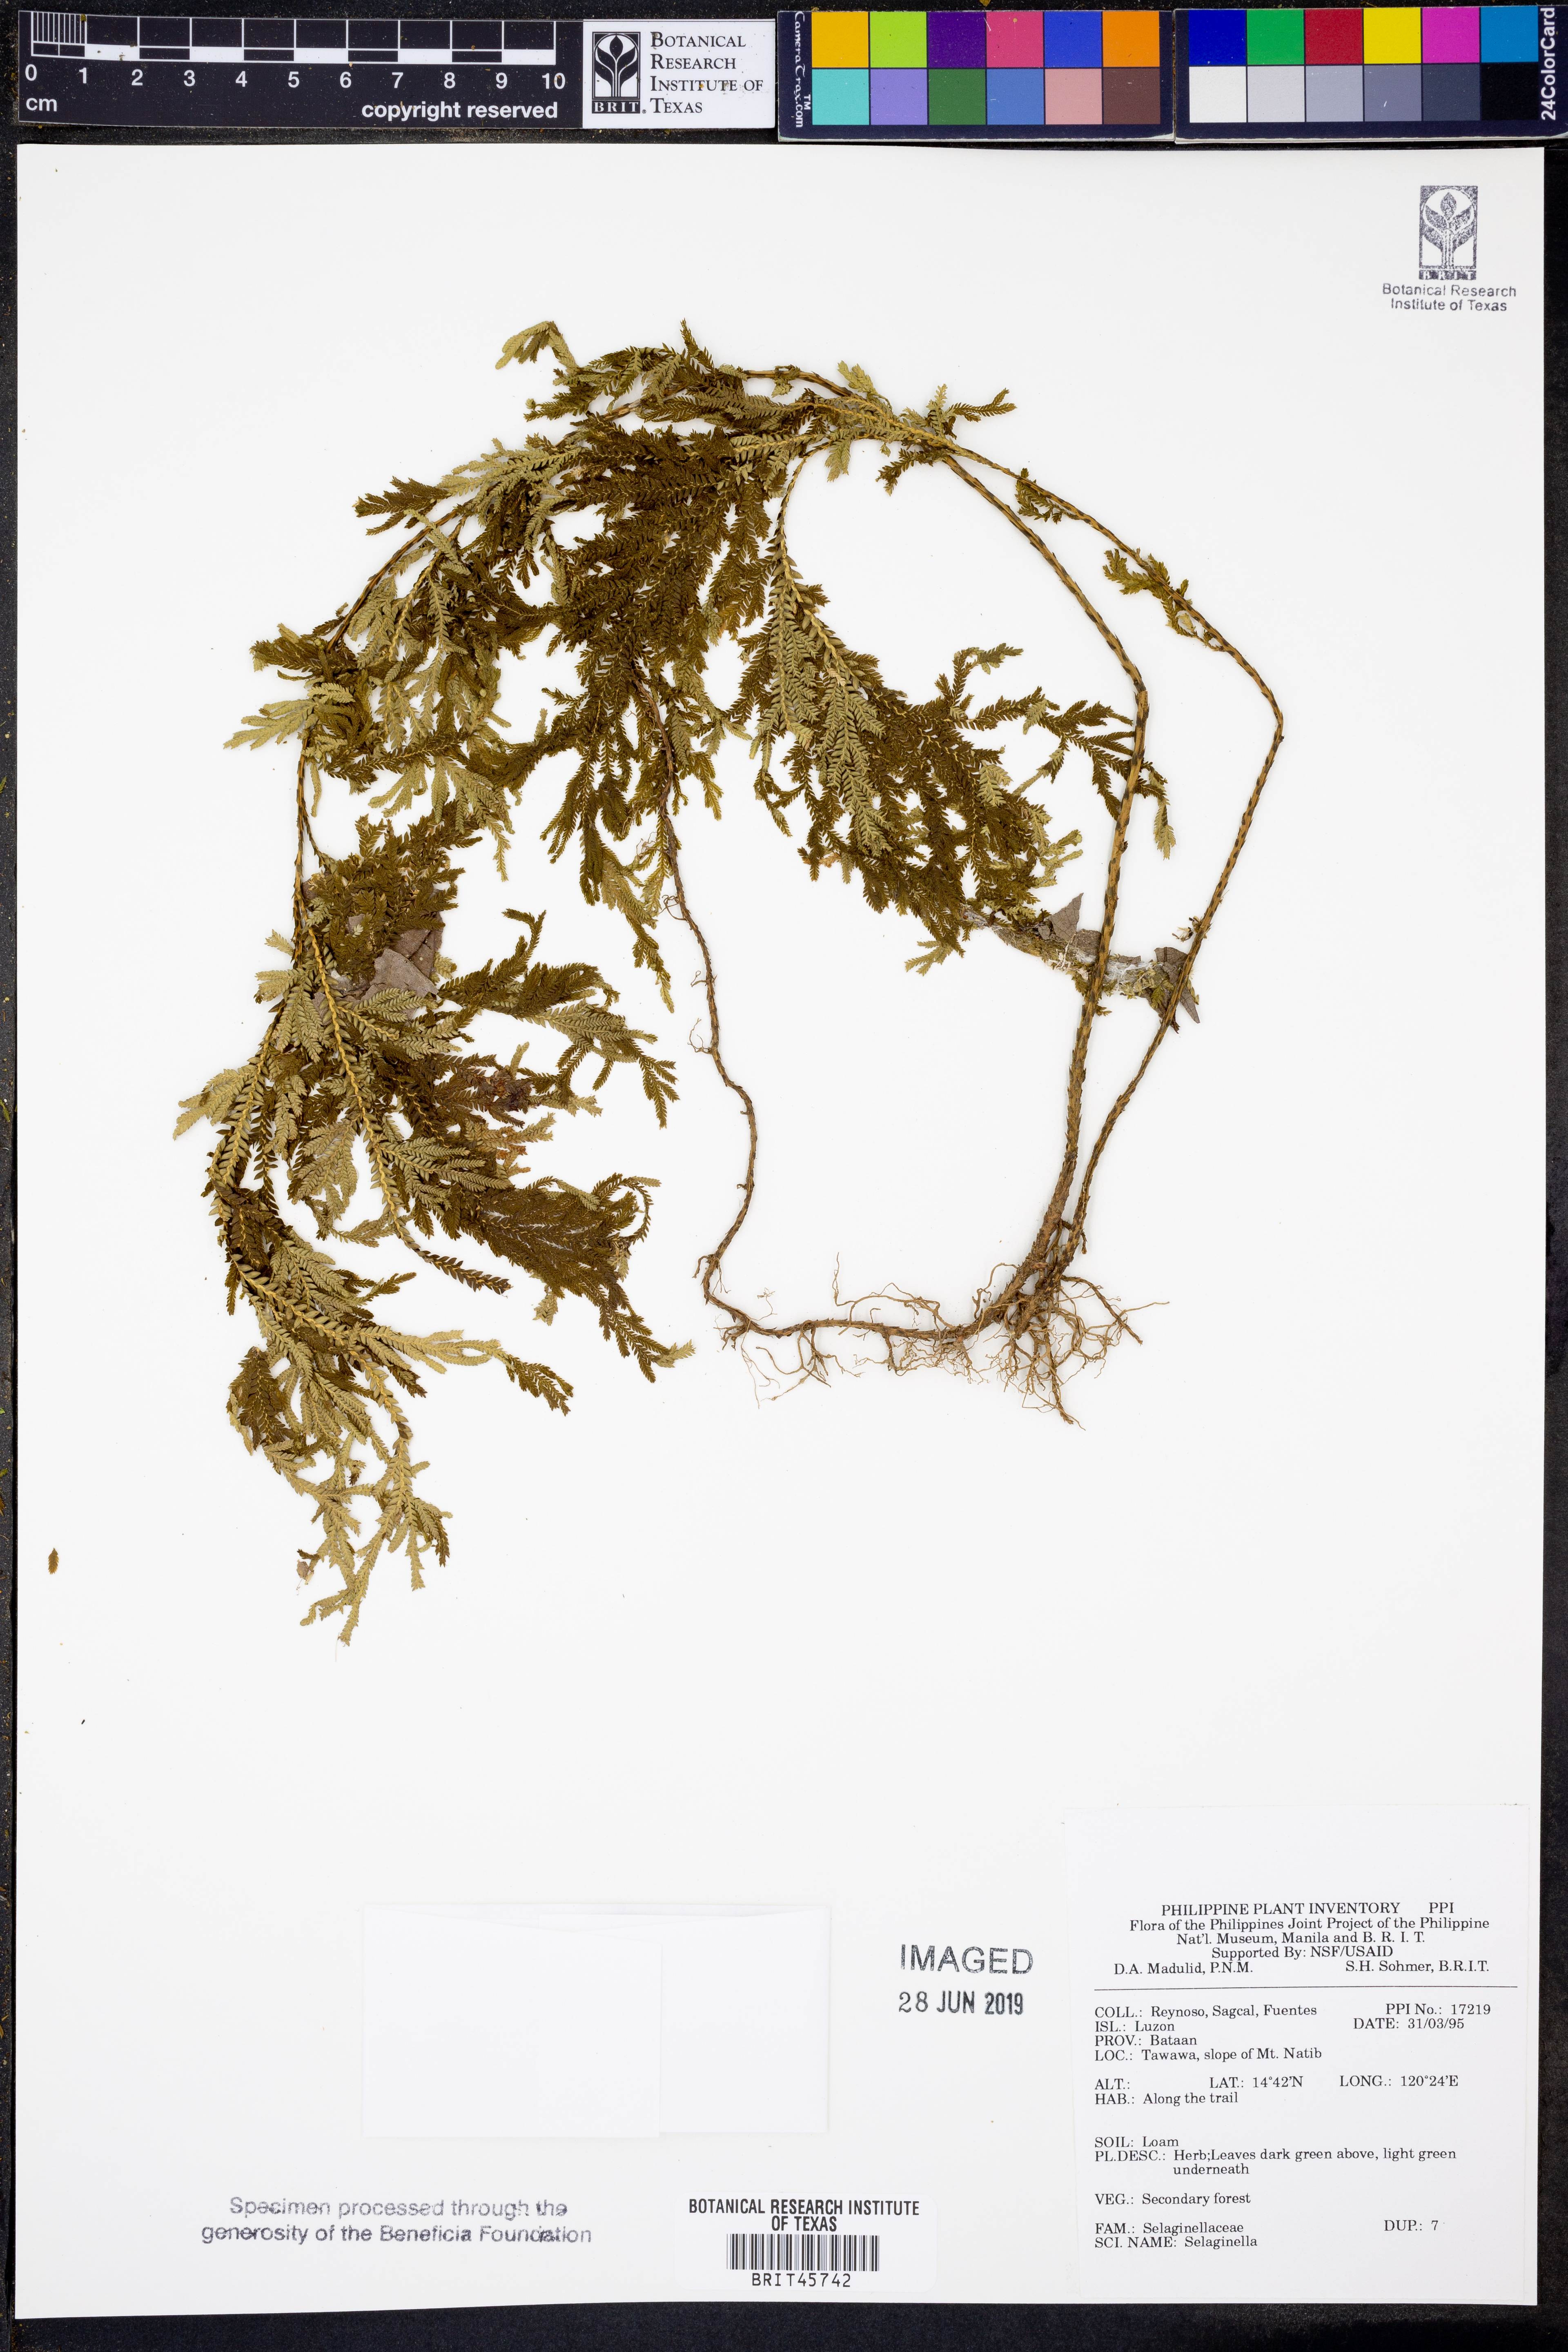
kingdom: Plantae
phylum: Tracheophyta
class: Lycopodiopsida
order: Selaginellales
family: Selaginellaceae
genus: Selaginella
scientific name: Selaginella
